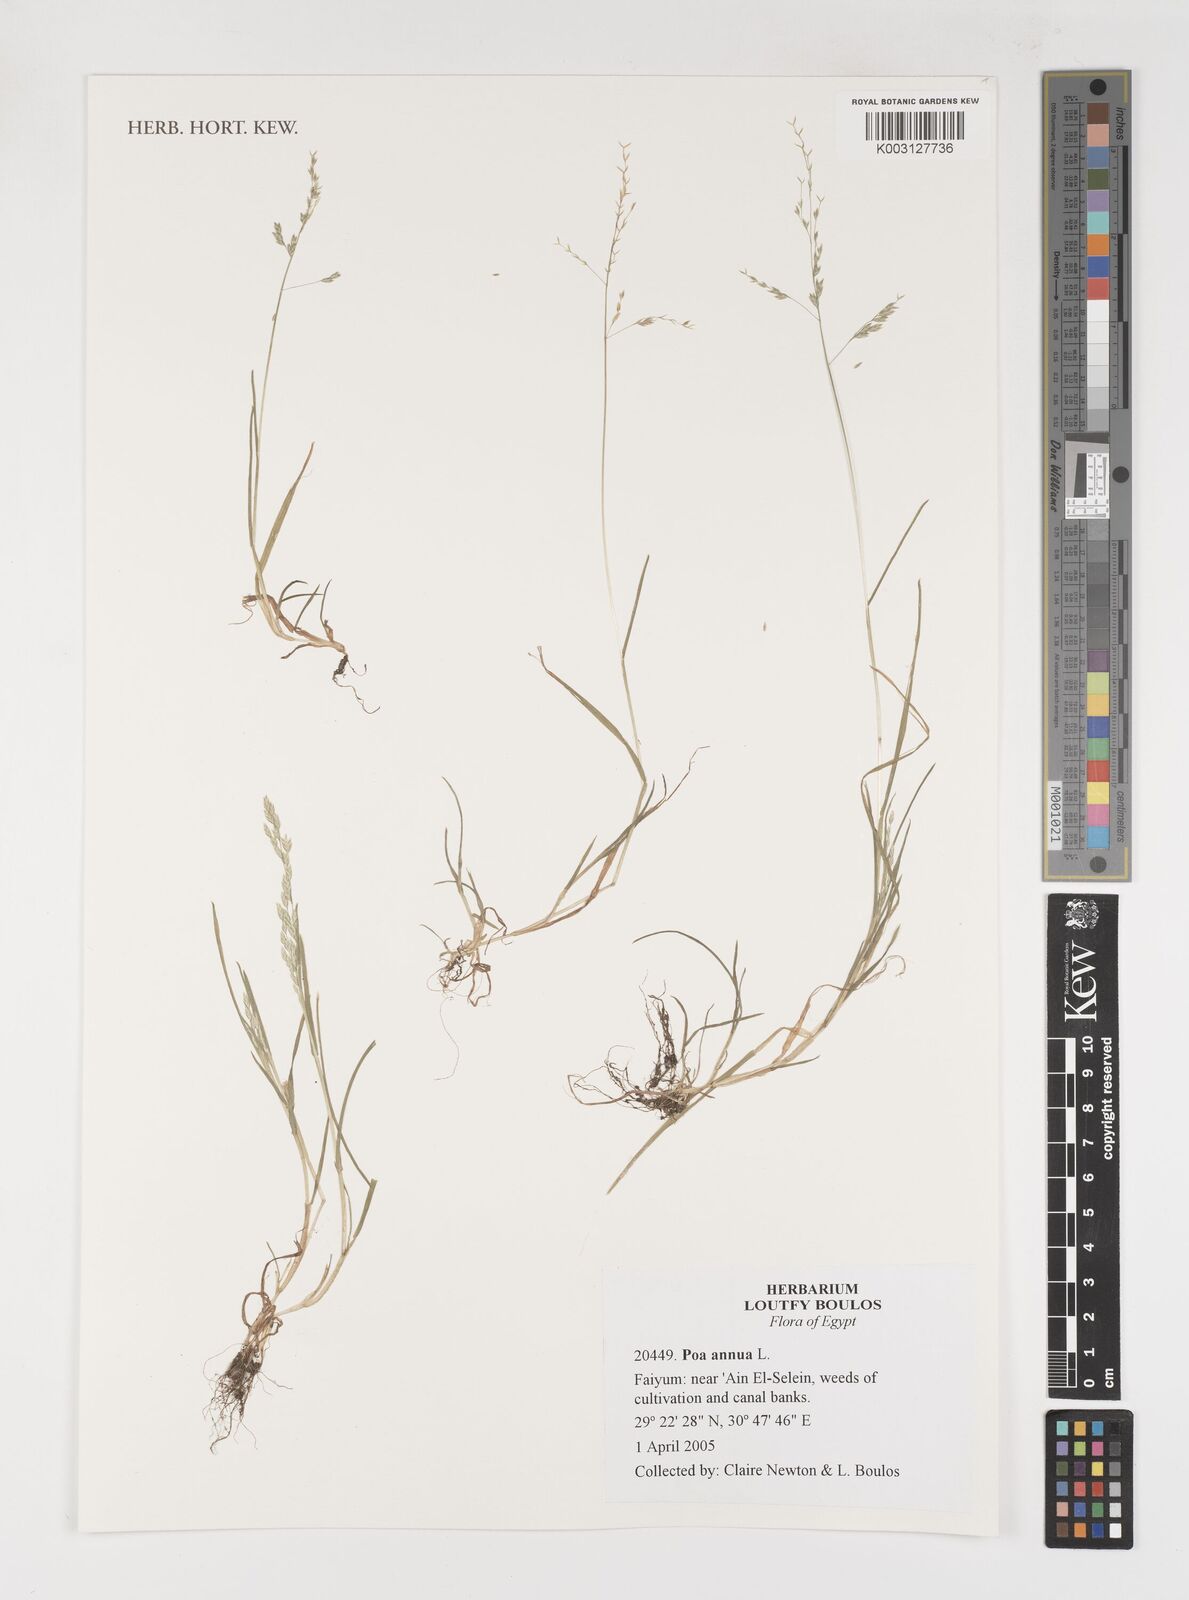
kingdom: Plantae
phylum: Tracheophyta
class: Liliopsida
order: Poales
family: Poaceae
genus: Poa
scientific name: Poa annua
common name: Annual bluegrass
